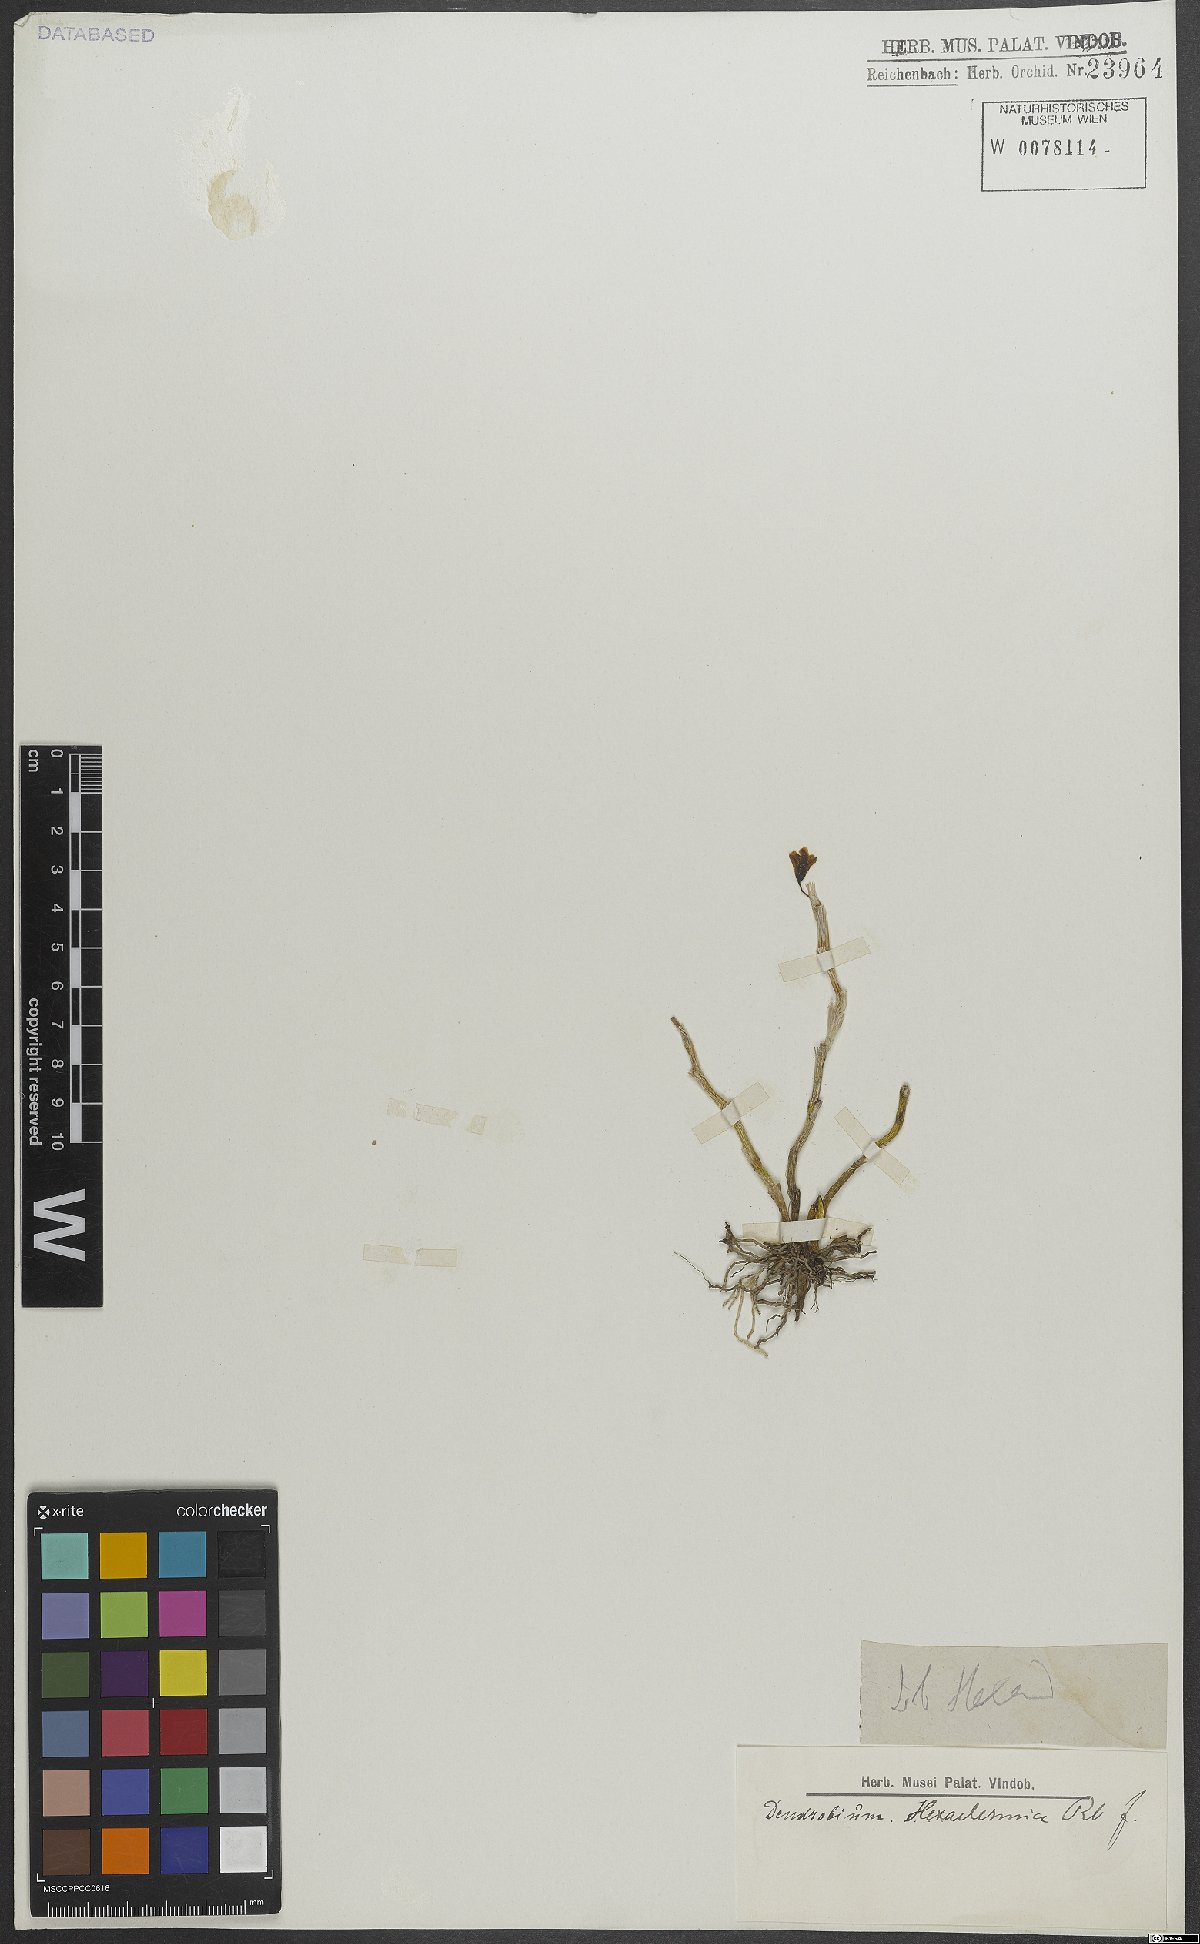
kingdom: Plantae
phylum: Tracheophyta
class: Liliopsida
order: Asparagales
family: Orchidaceae
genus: Dendrobium
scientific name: Dendrobium parcum
